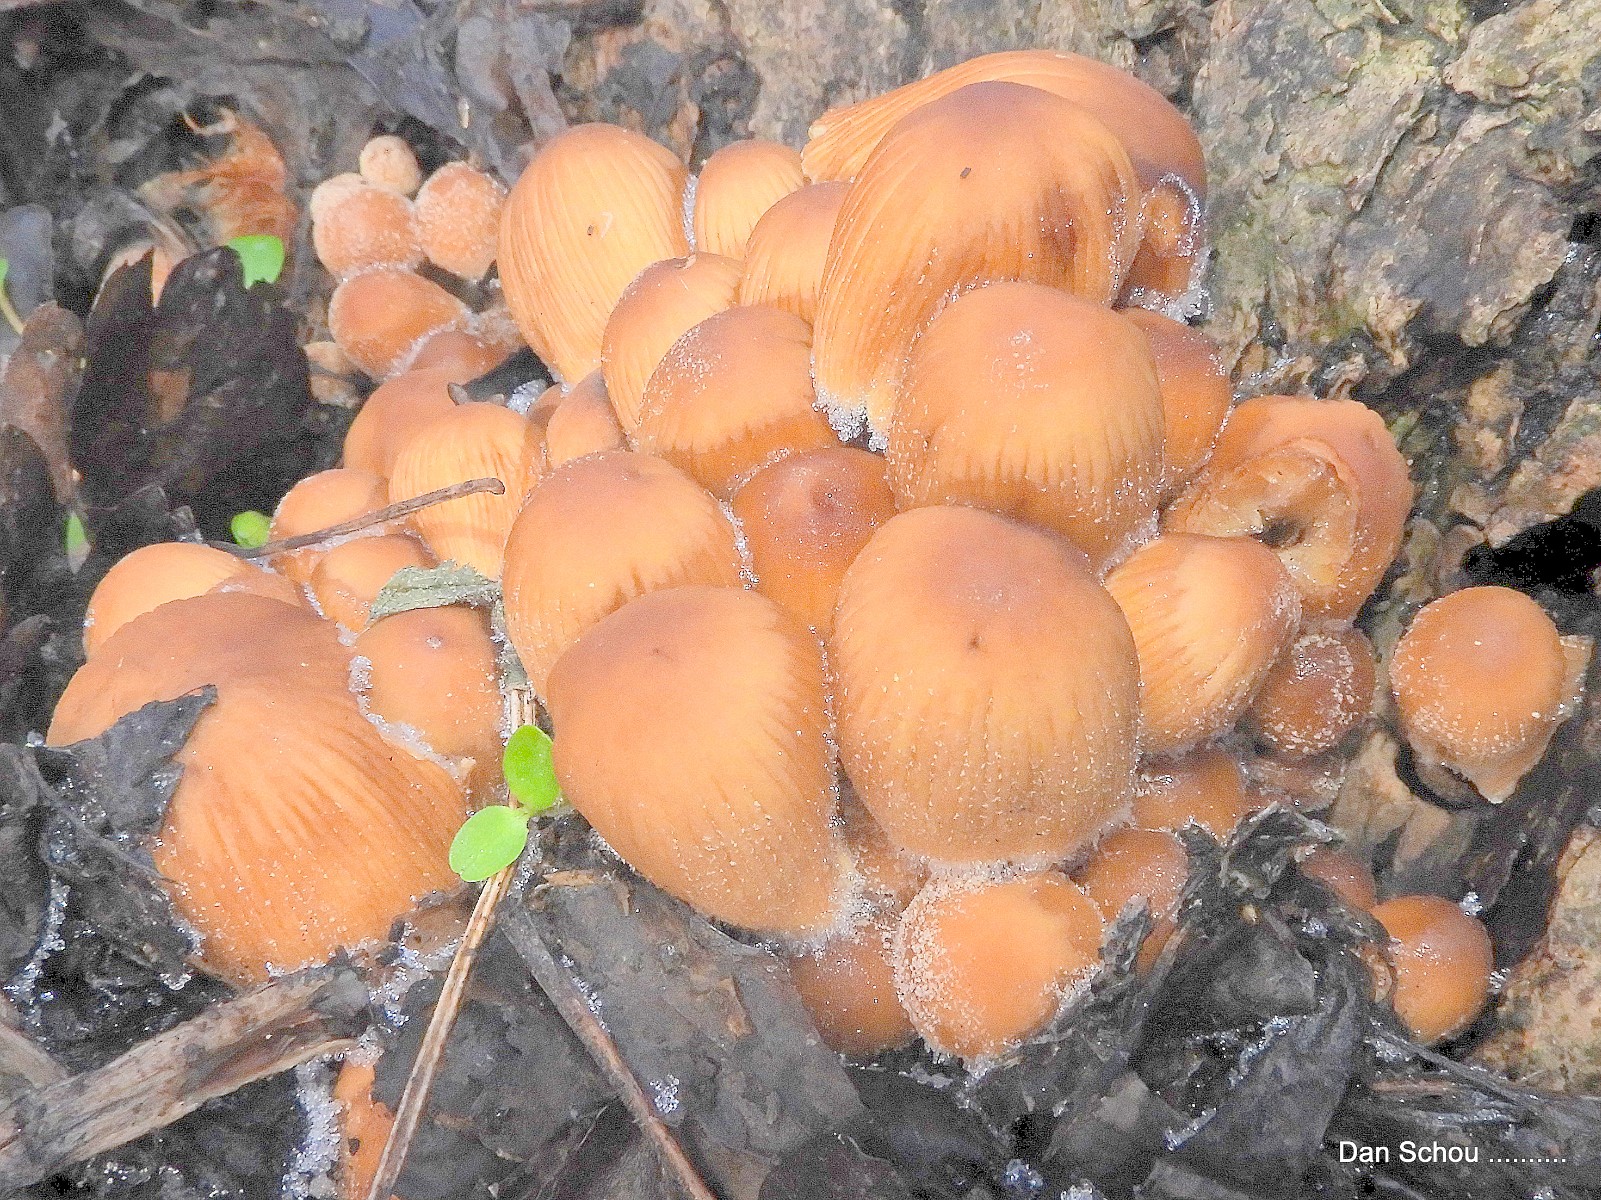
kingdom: Fungi
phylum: Basidiomycota
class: Agaricomycetes
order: Agaricales
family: Psathyrellaceae
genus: Coprinellus
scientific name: Coprinellus micaceus
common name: glimmer-blækhat
